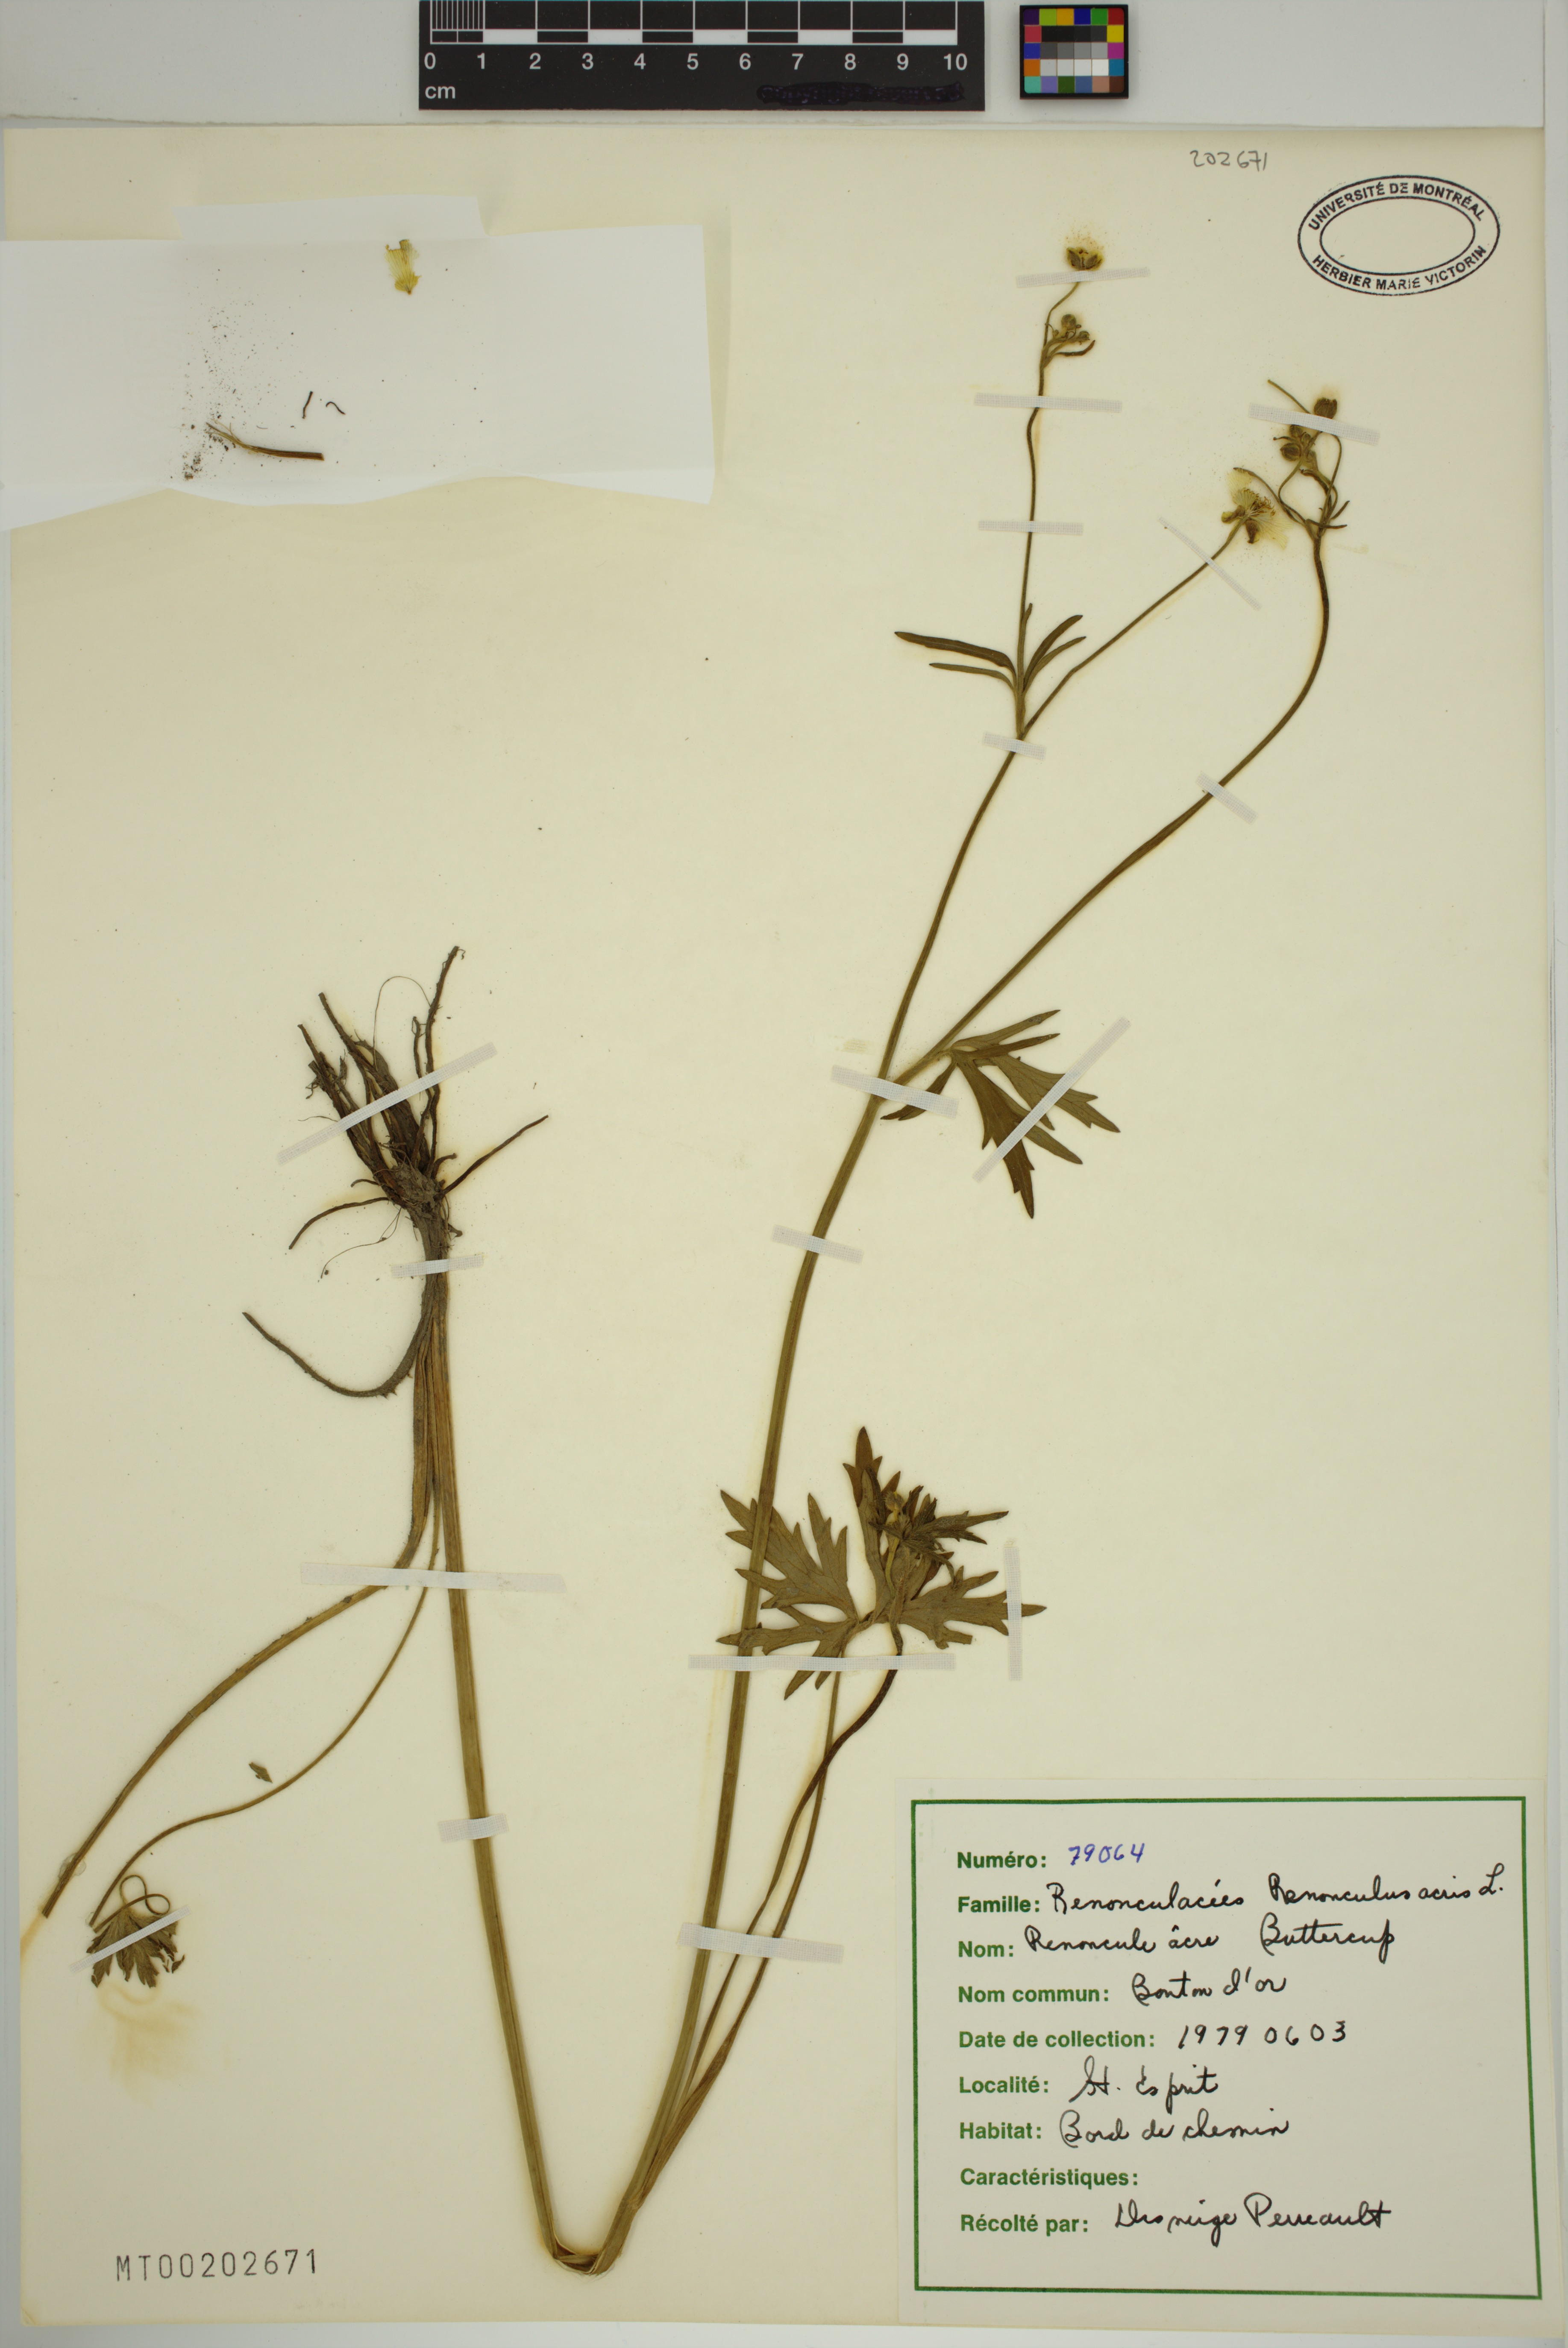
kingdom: Plantae
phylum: Tracheophyta
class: Magnoliopsida
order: Ranunculales
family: Ranunculaceae
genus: Ranunculus
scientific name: Ranunculus acris
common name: Meadow buttercup
